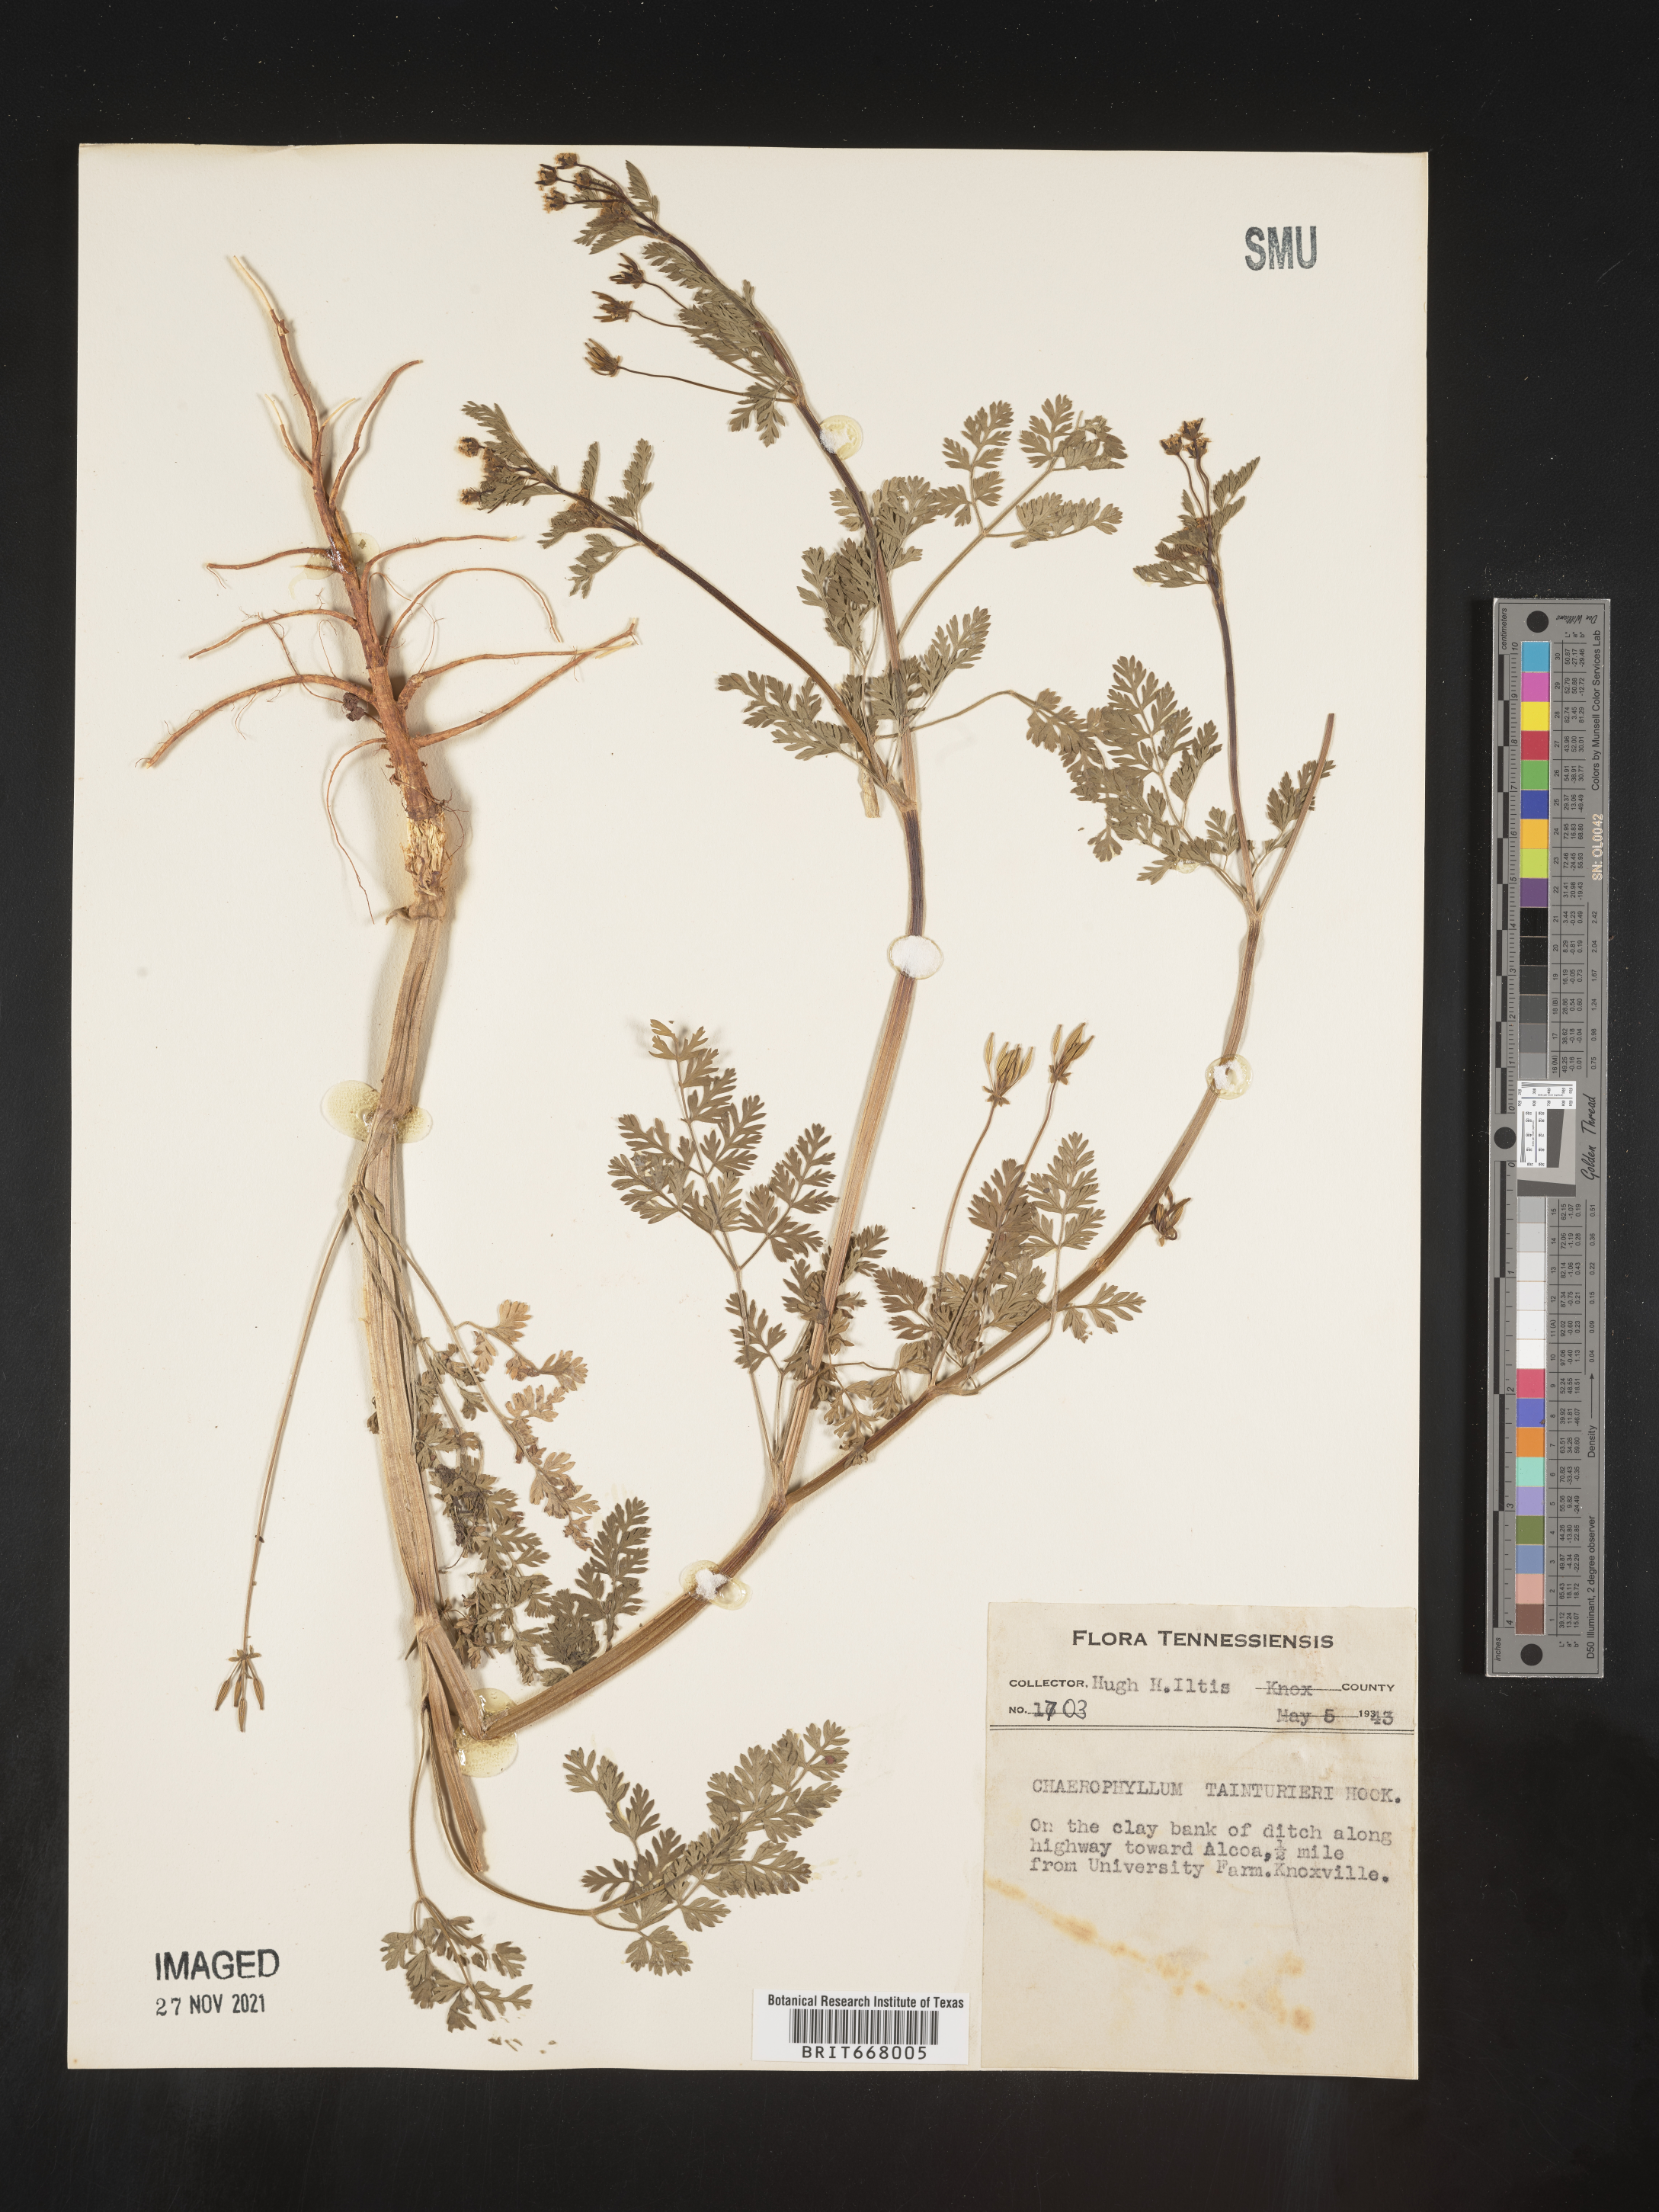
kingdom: Plantae
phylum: Tracheophyta
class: Magnoliopsida
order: Apiales
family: Apiaceae
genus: Chaerophyllum
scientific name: Chaerophyllum tainturieri
